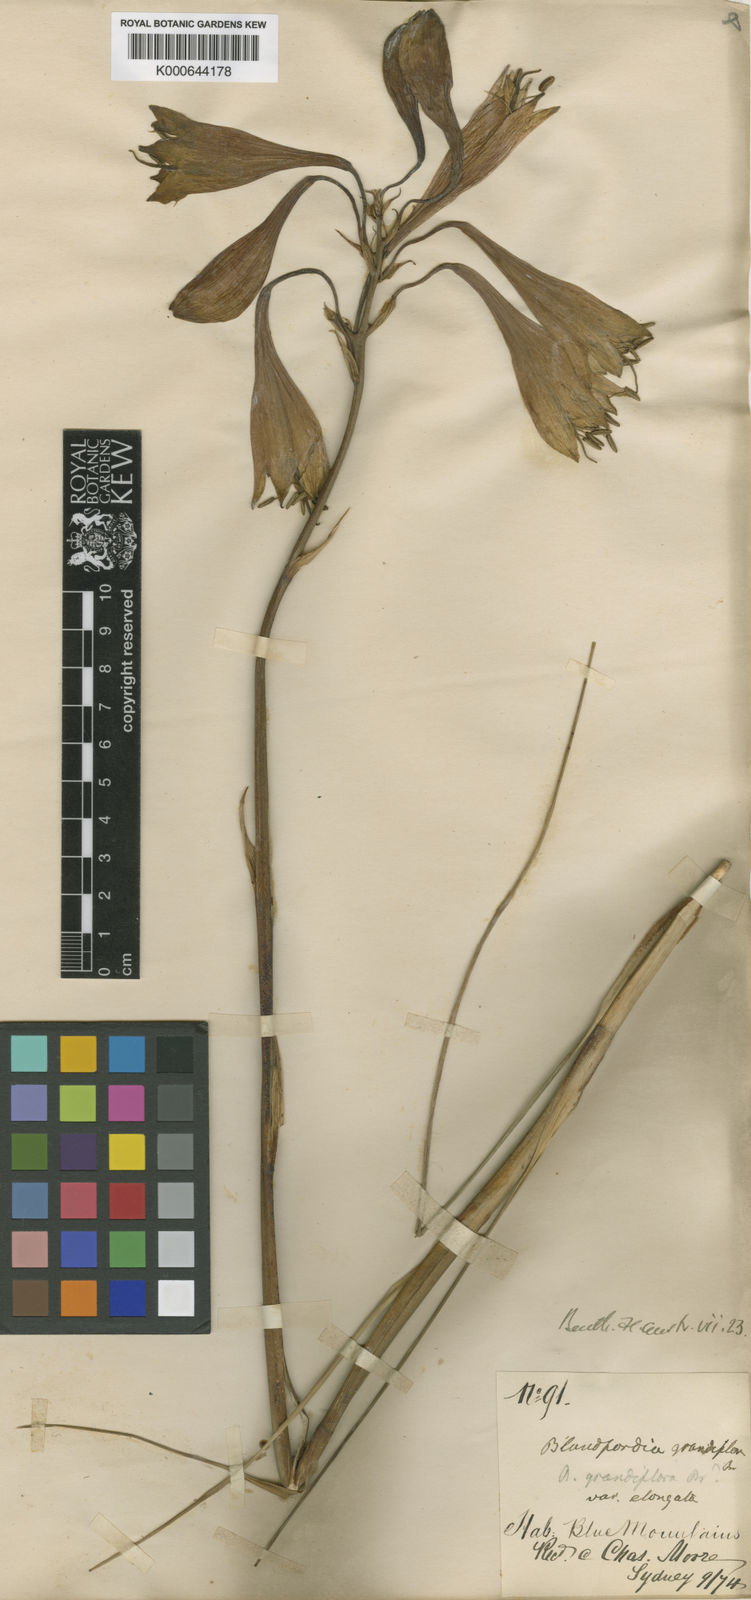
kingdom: Plantae
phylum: Tracheophyta
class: Liliopsida
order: Asparagales
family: Blandfordiaceae
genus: Blandfordia
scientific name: Blandfordia grandiflora
